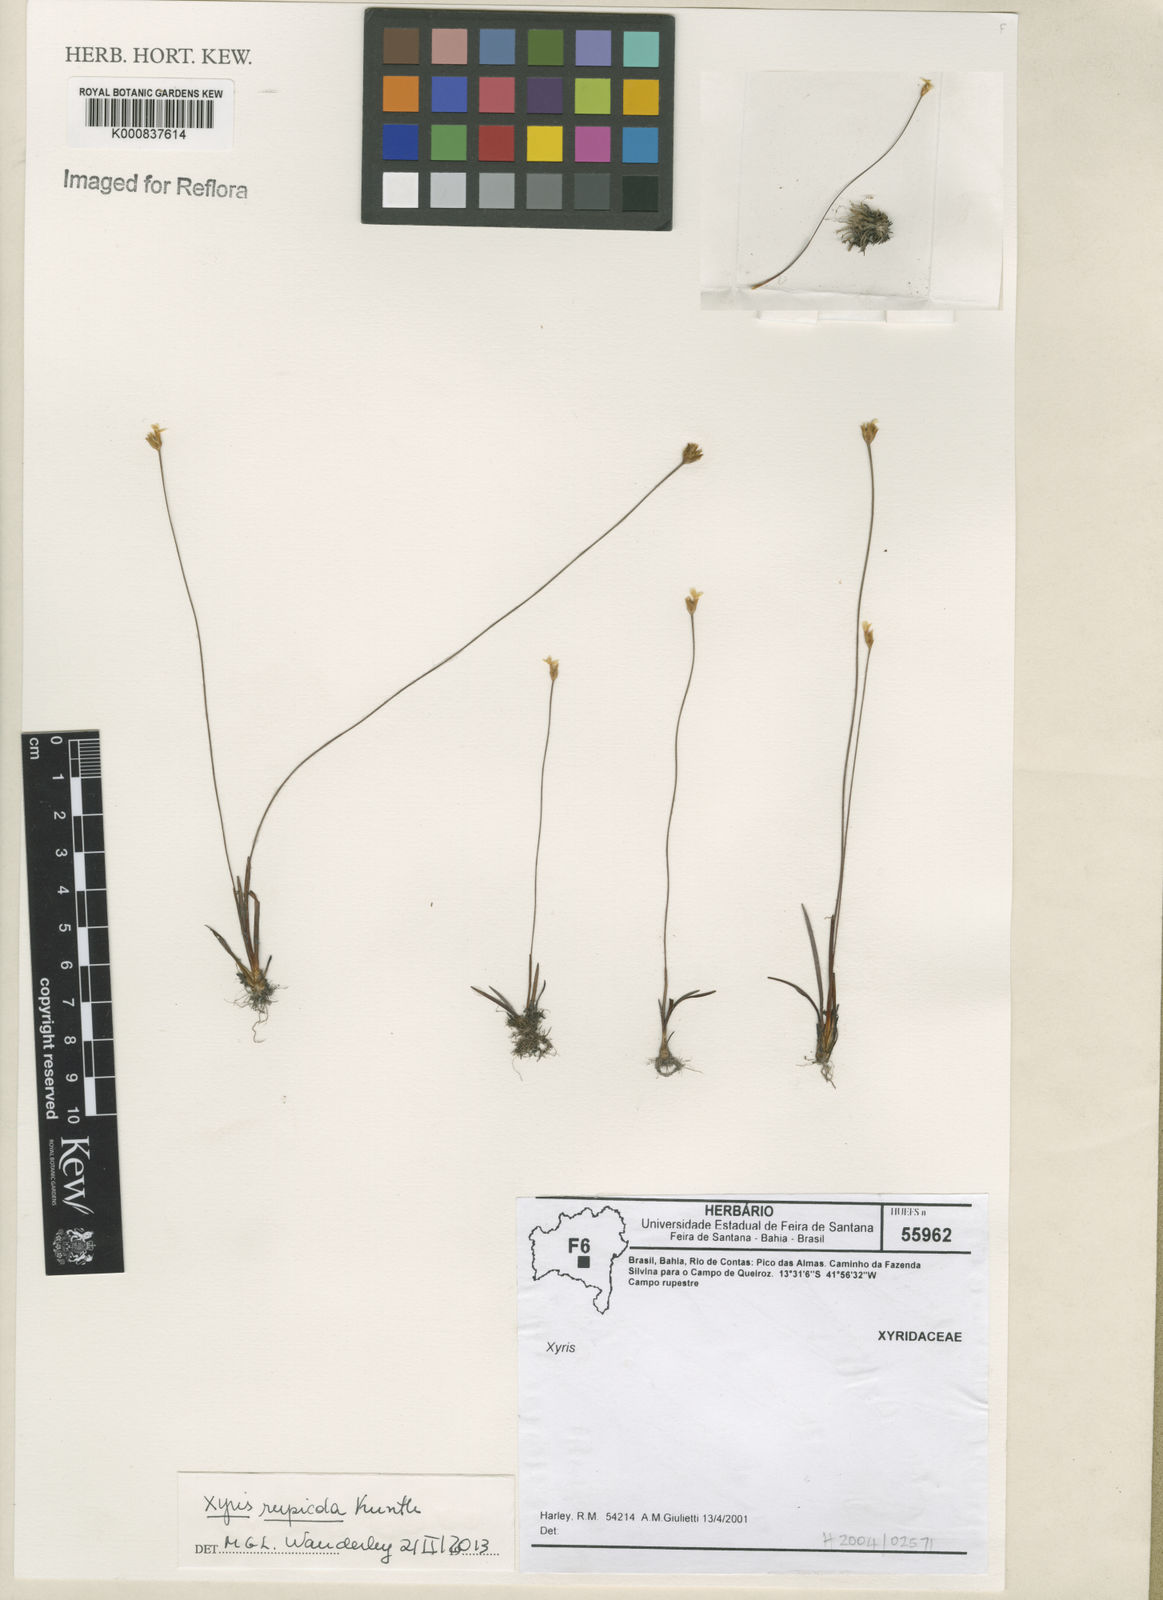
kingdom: Plantae
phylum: Tracheophyta
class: Liliopsida
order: Poales
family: Xyridaceae
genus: Xyris
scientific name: Xyris rupicola
